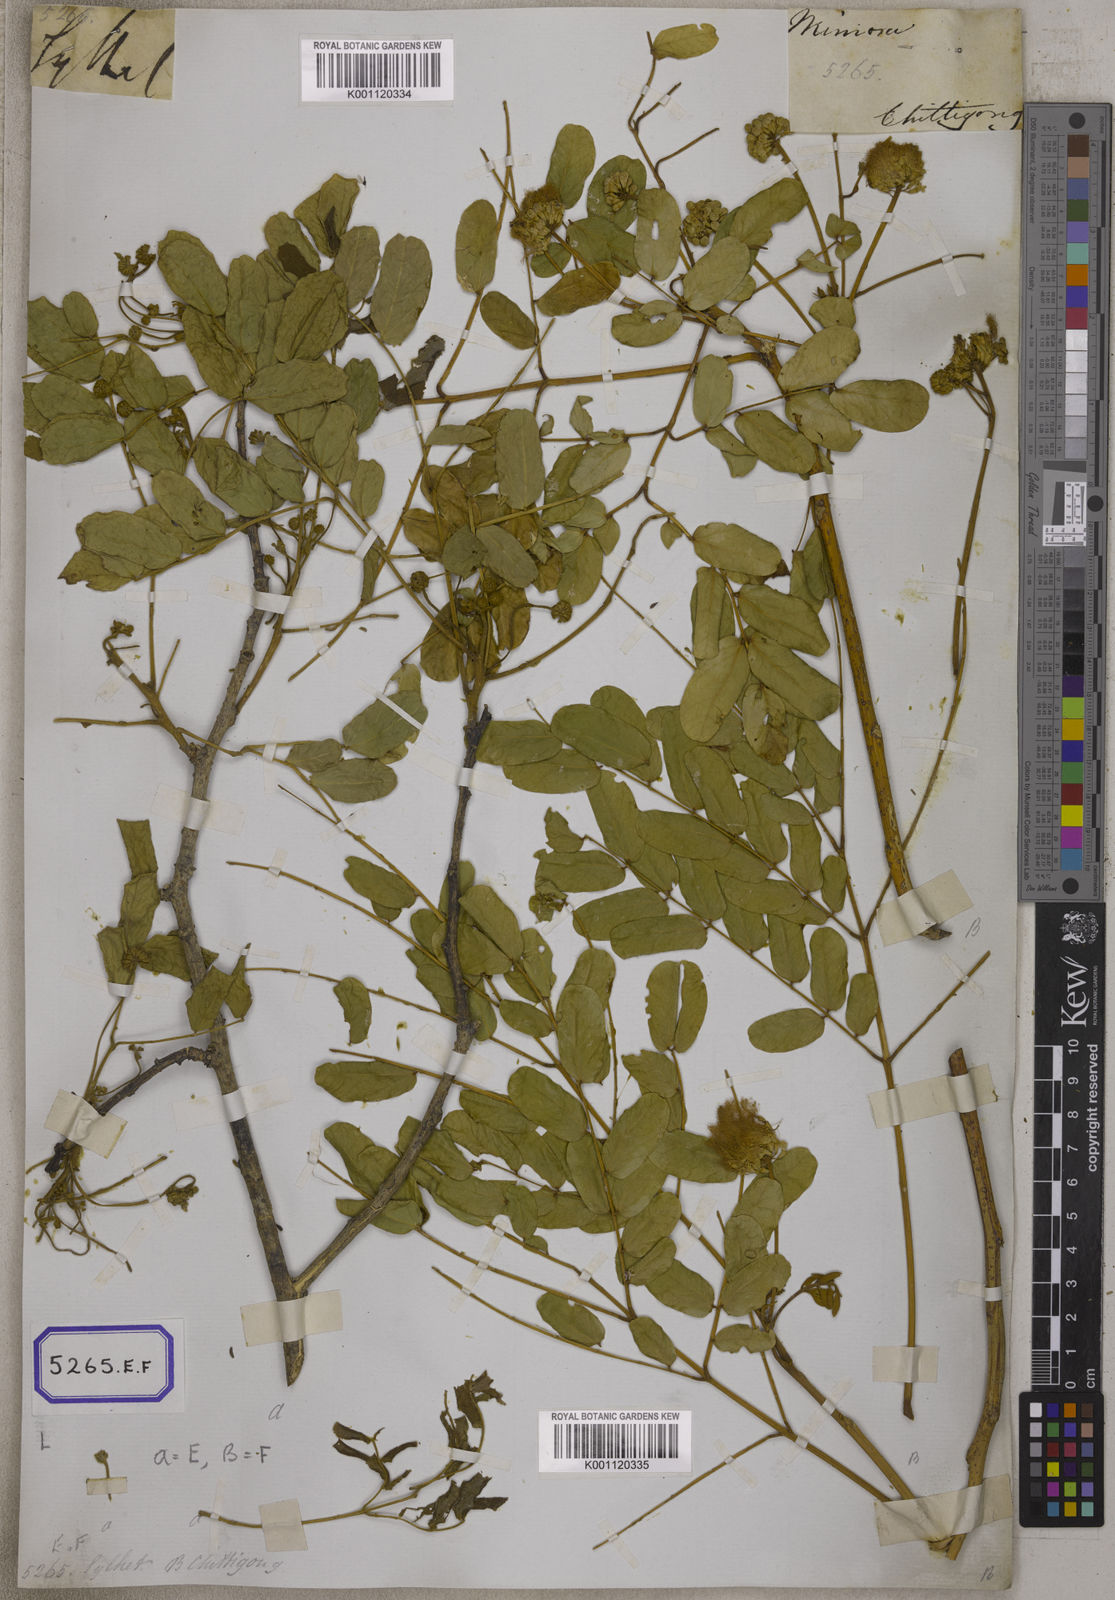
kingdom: Plantae
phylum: Tracheophyta
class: Magnoliopsida
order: Fabales
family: Fabaceae
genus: Acacia
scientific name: Acacia
